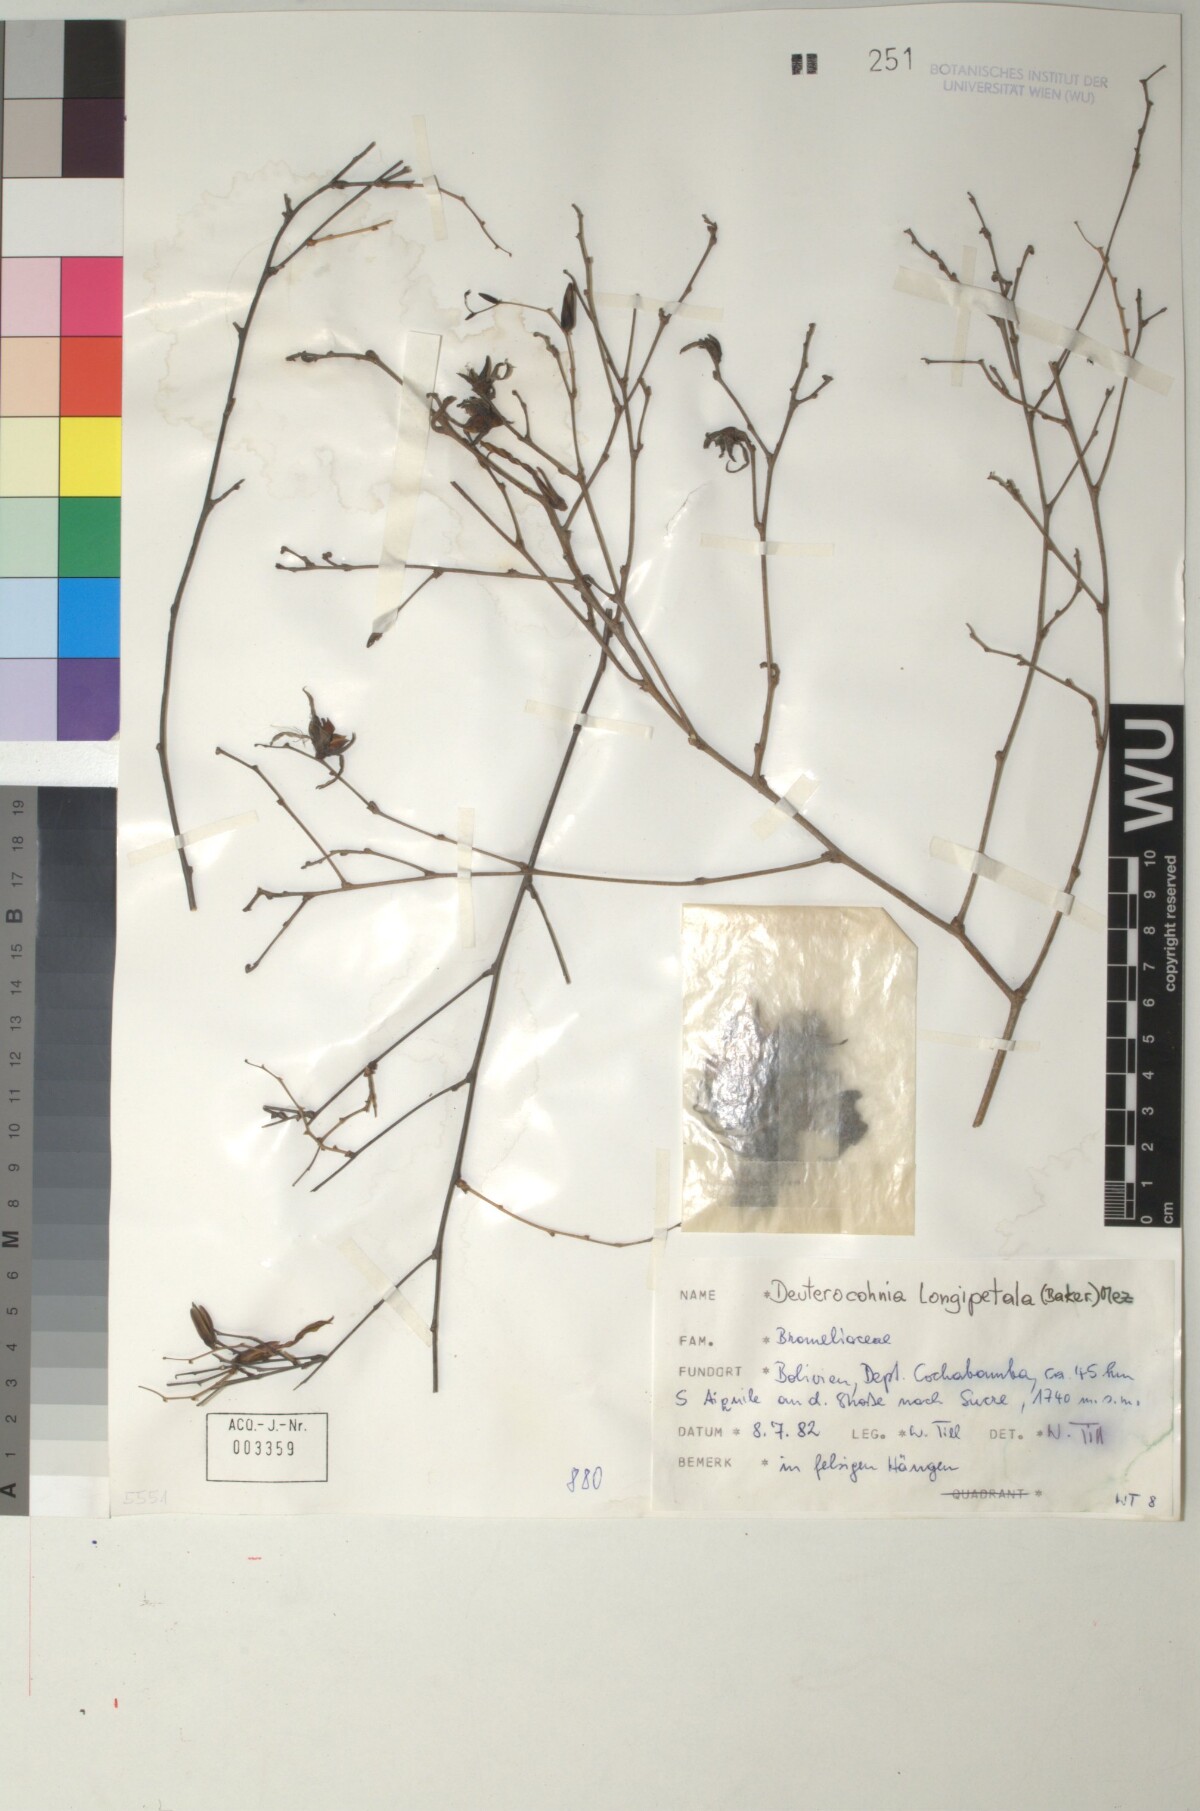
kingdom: Plantae
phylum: Tracheophyta
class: Liliopsida
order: Poales
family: Bromeliaceae
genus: Deuterocohnia
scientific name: Deuterocohnia meziana
